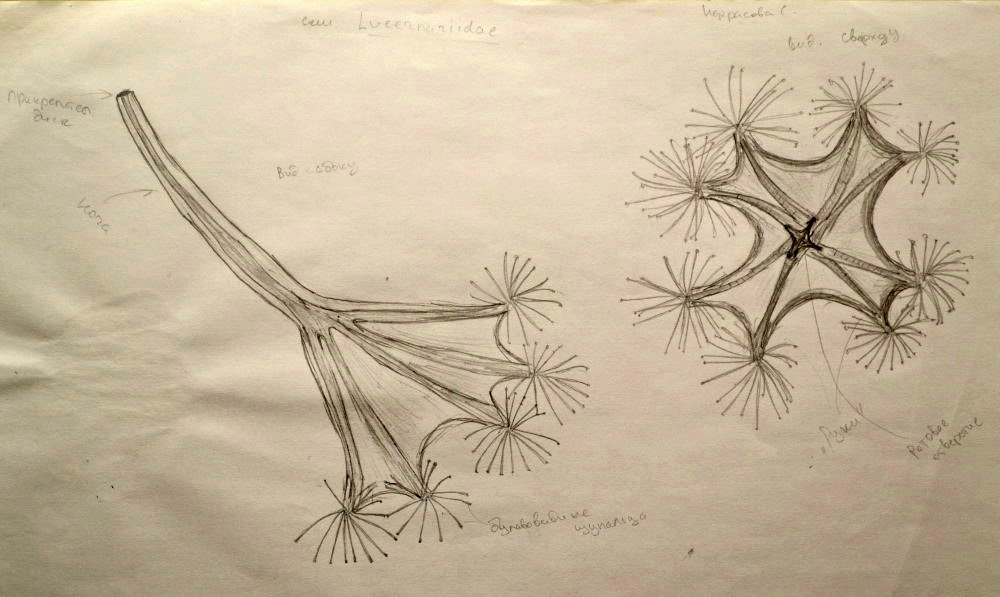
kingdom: Animalia
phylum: Cnidaria
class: Staurozoa
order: Stauromedusae
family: Lucernariidae
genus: Lucernaria
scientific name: Lucernaria quadricornis
